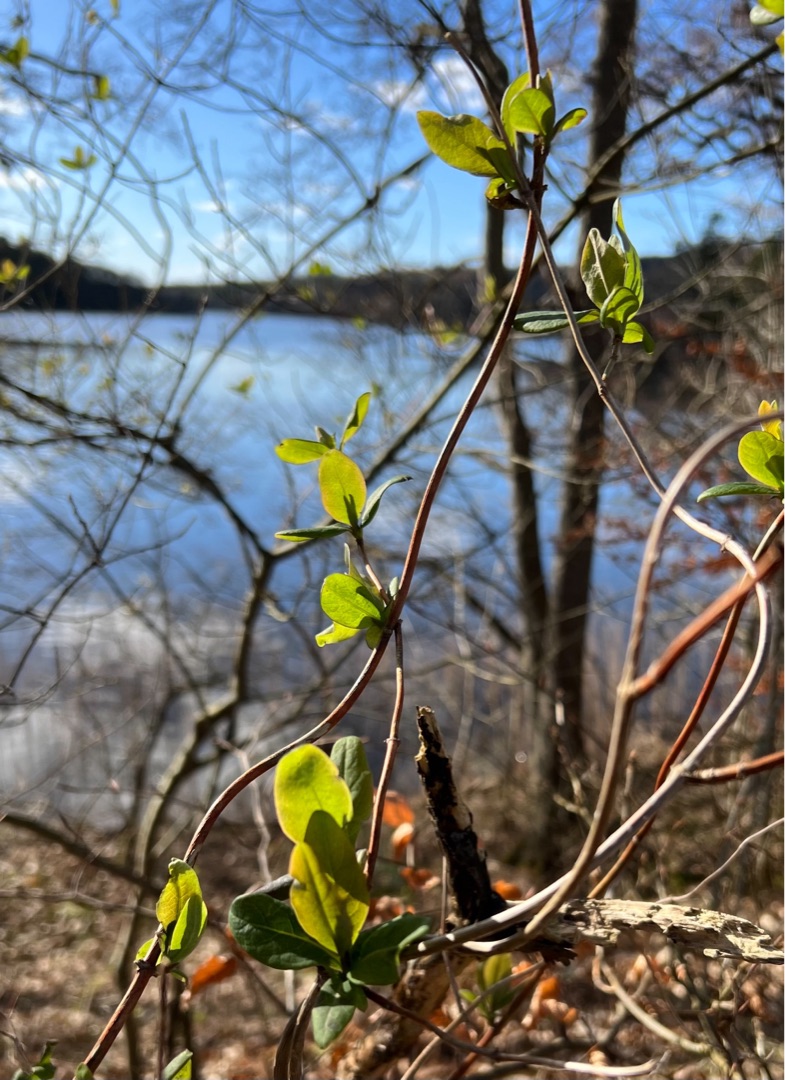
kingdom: Plantae
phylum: Tracheophyta
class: Magnoliopsida
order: Dipsacales
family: Caprifoliaceae
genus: Lonicera
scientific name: Lonicera periclymenum
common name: Almindelig gedeblad
